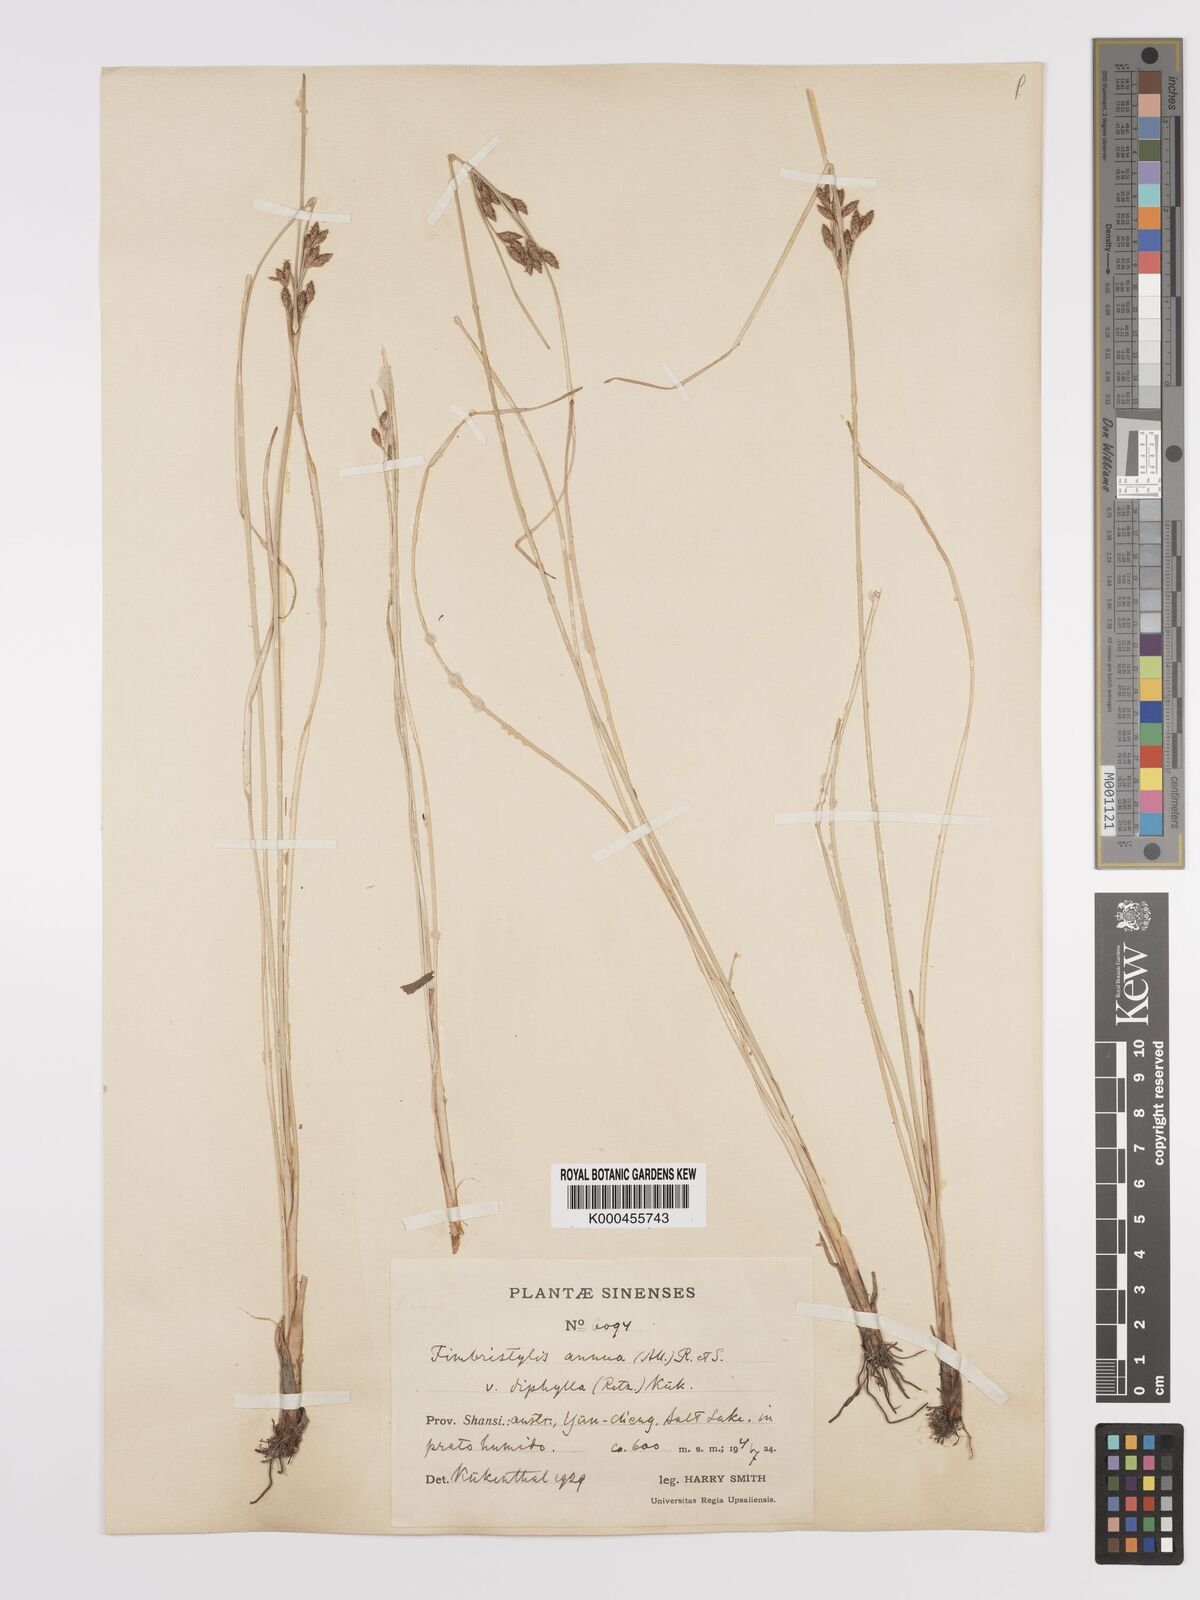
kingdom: Plantae
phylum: Tracheophyta
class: Liliopsida
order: Poales
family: Cyperaceae
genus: Fimbristylis
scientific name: Fimbristylis dichotoma
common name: Forked fimbry
